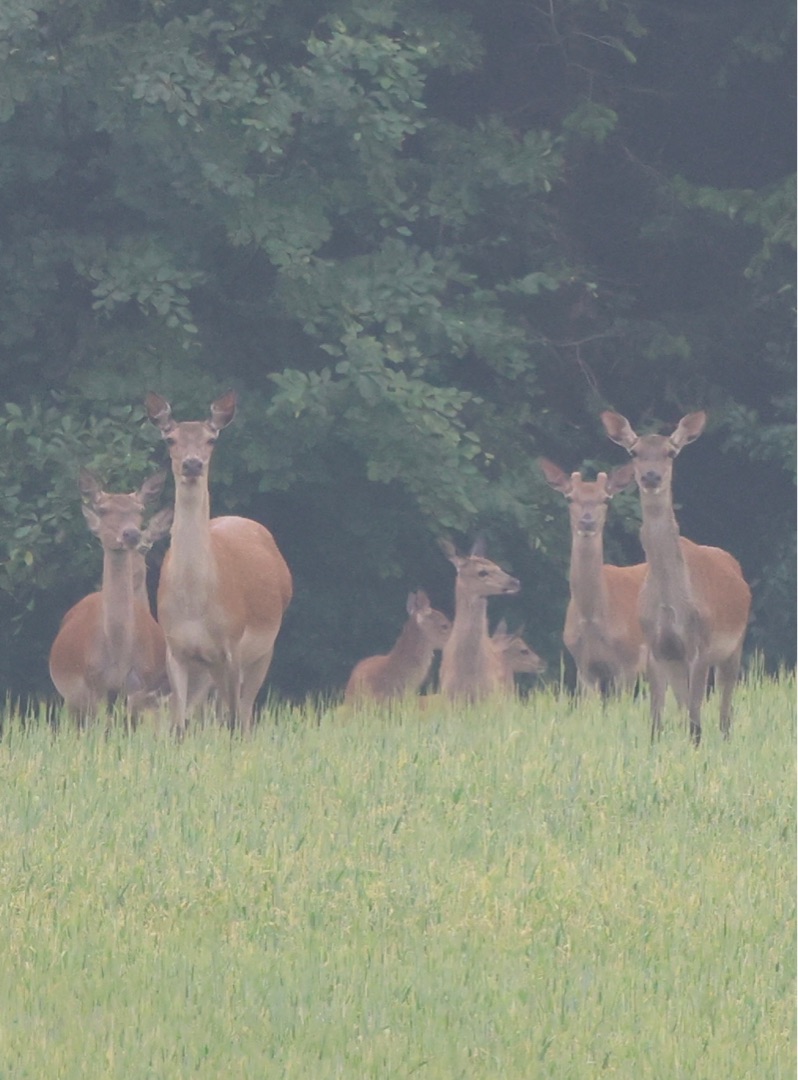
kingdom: Animalia
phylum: Chordata
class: Mammalia
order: Artiodactyla
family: Cervidae
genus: Cervus
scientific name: Cervus elaphus
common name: Krondyr
